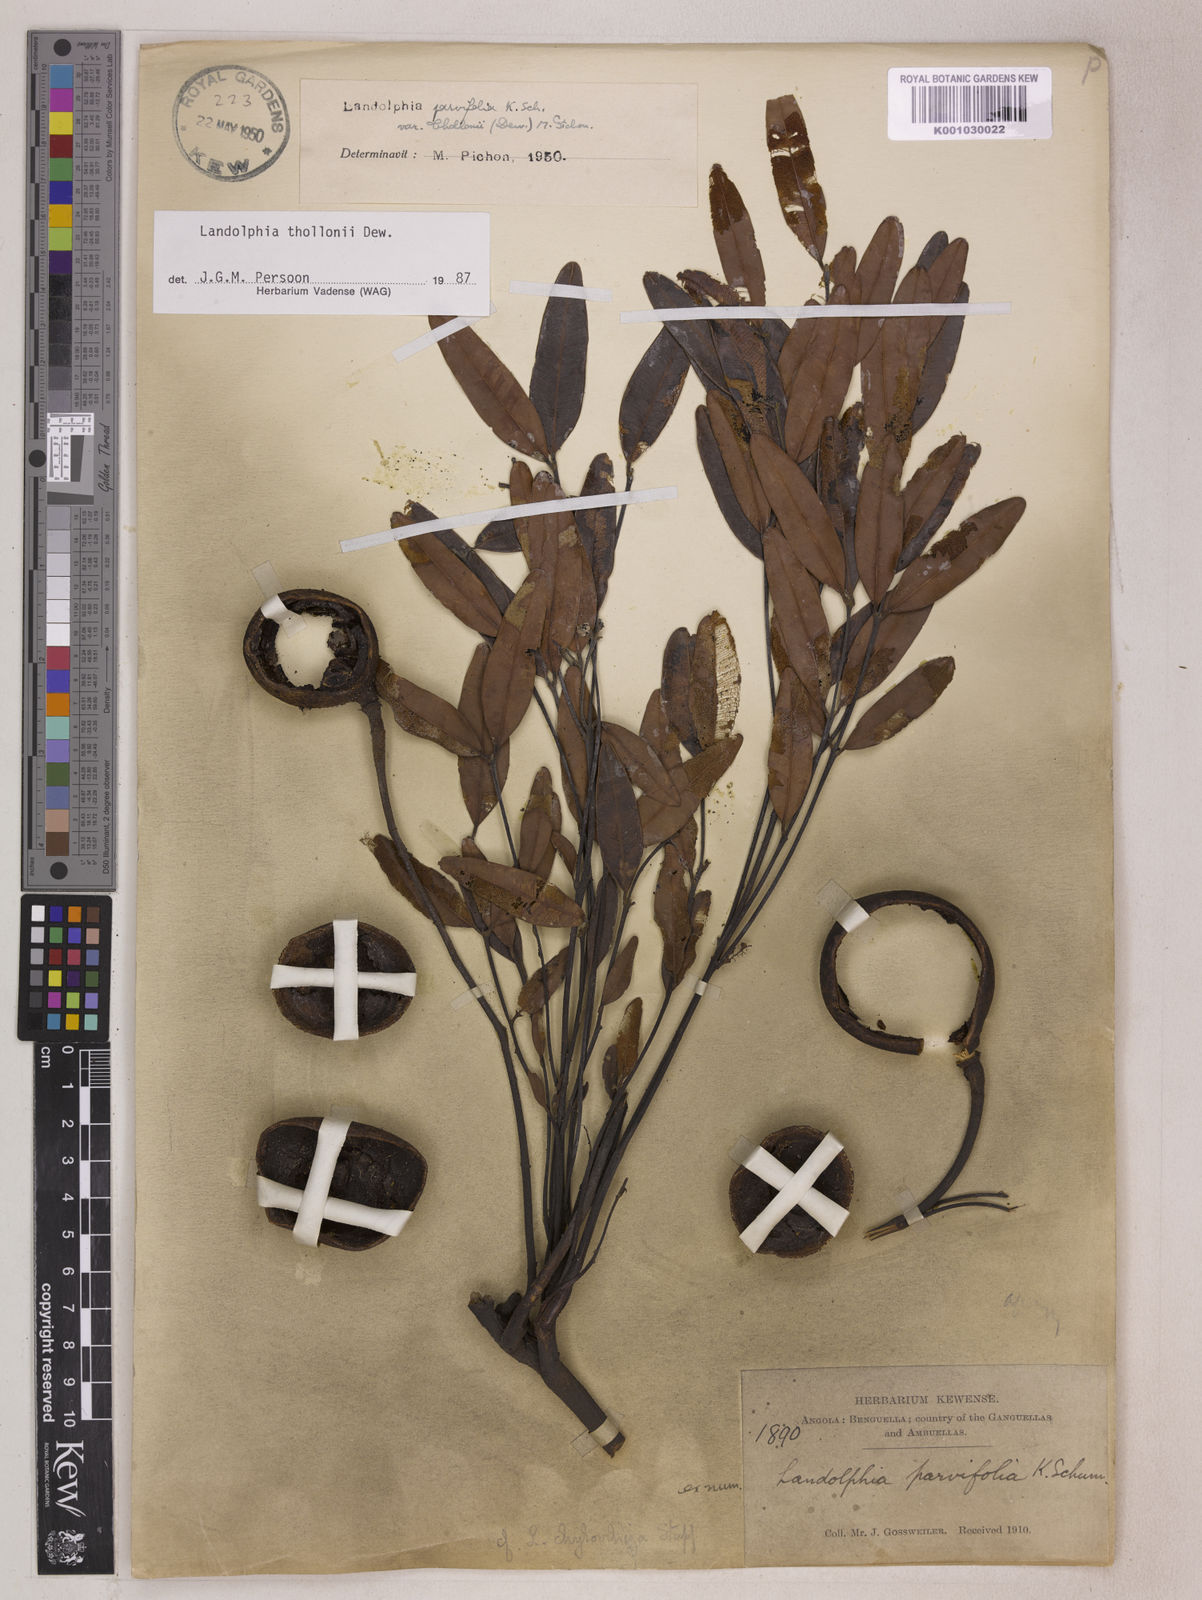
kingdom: Plantae
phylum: Tracheophyta
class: Magnoliopsida
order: Gentianales
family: Apocynaceae
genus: Landolphia
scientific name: Landolphia
